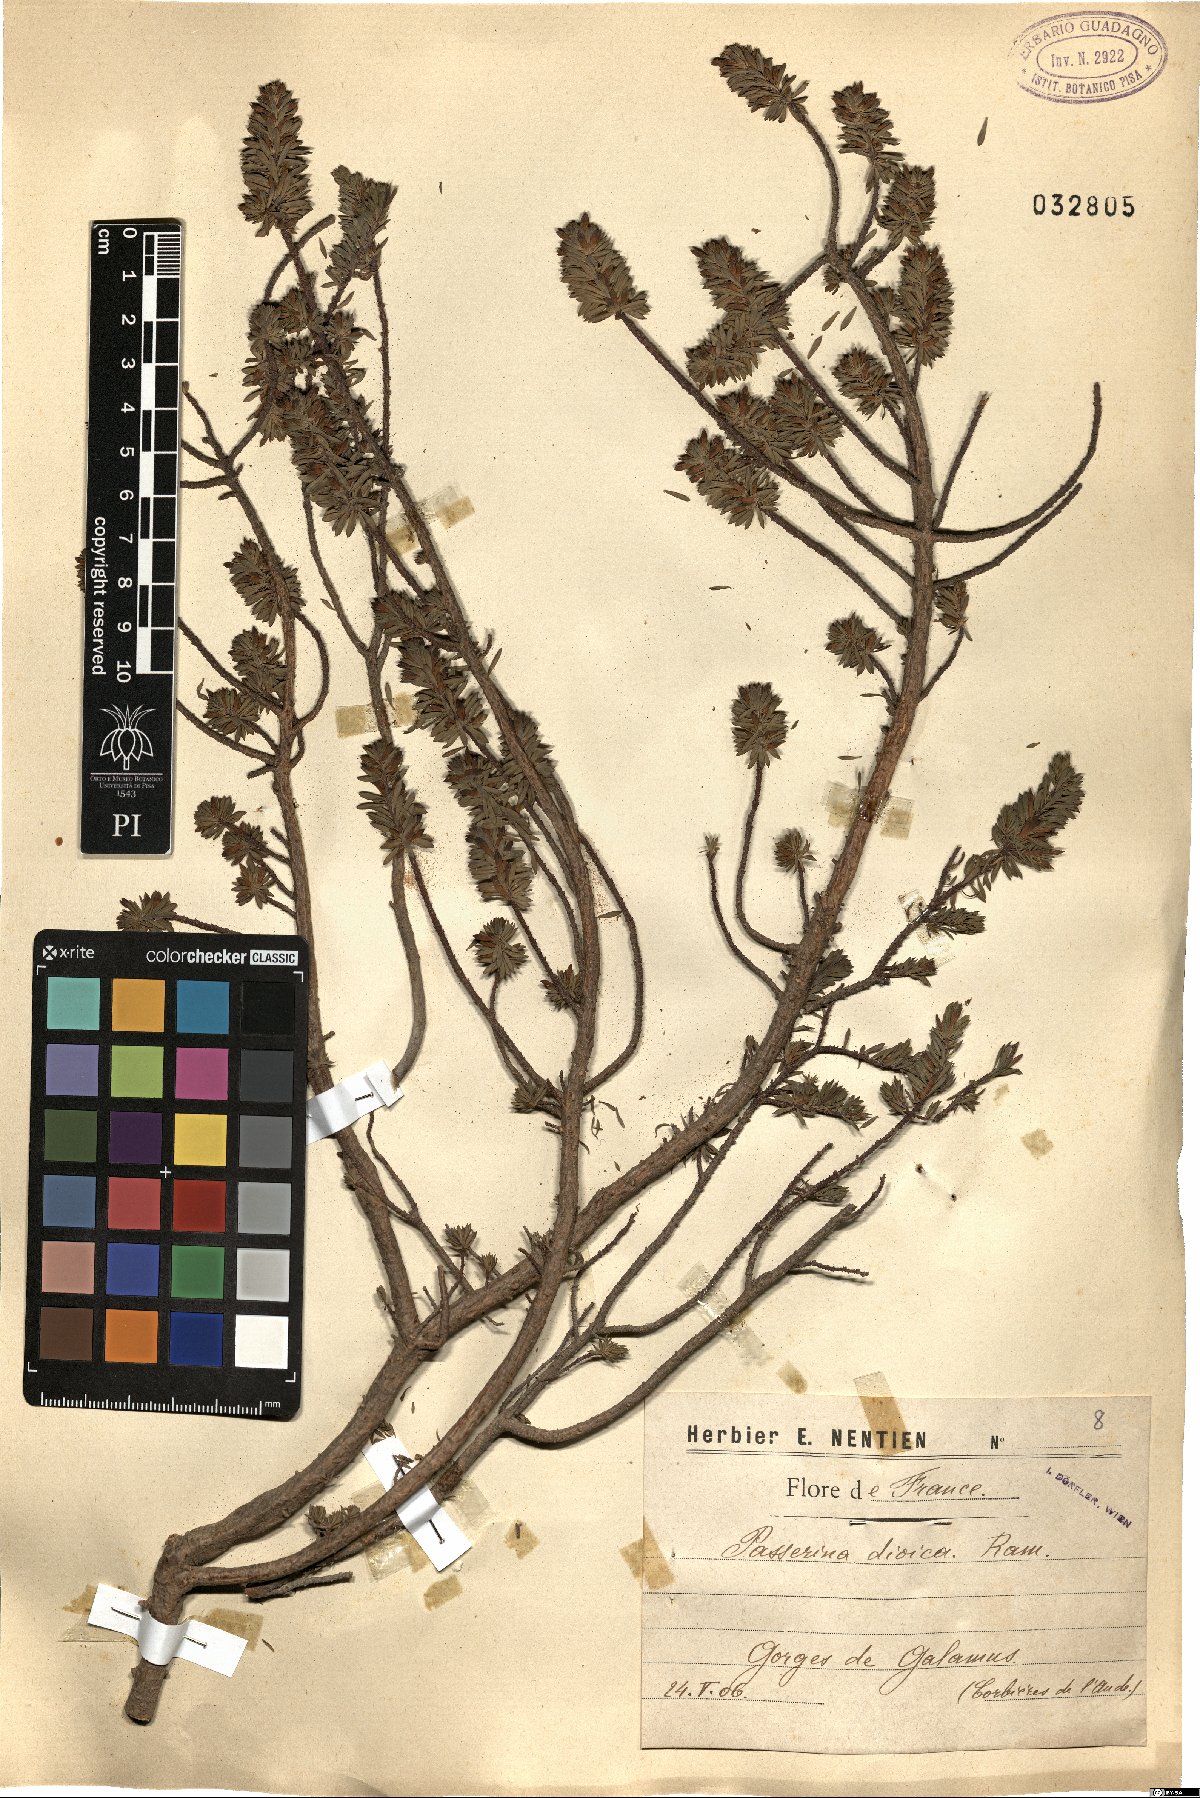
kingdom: Plantae
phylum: Tracheophyta
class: Magnoliopsida
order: Malvales
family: Thymelaeaceae
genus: Thymelaea
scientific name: Thymelaea dioica
